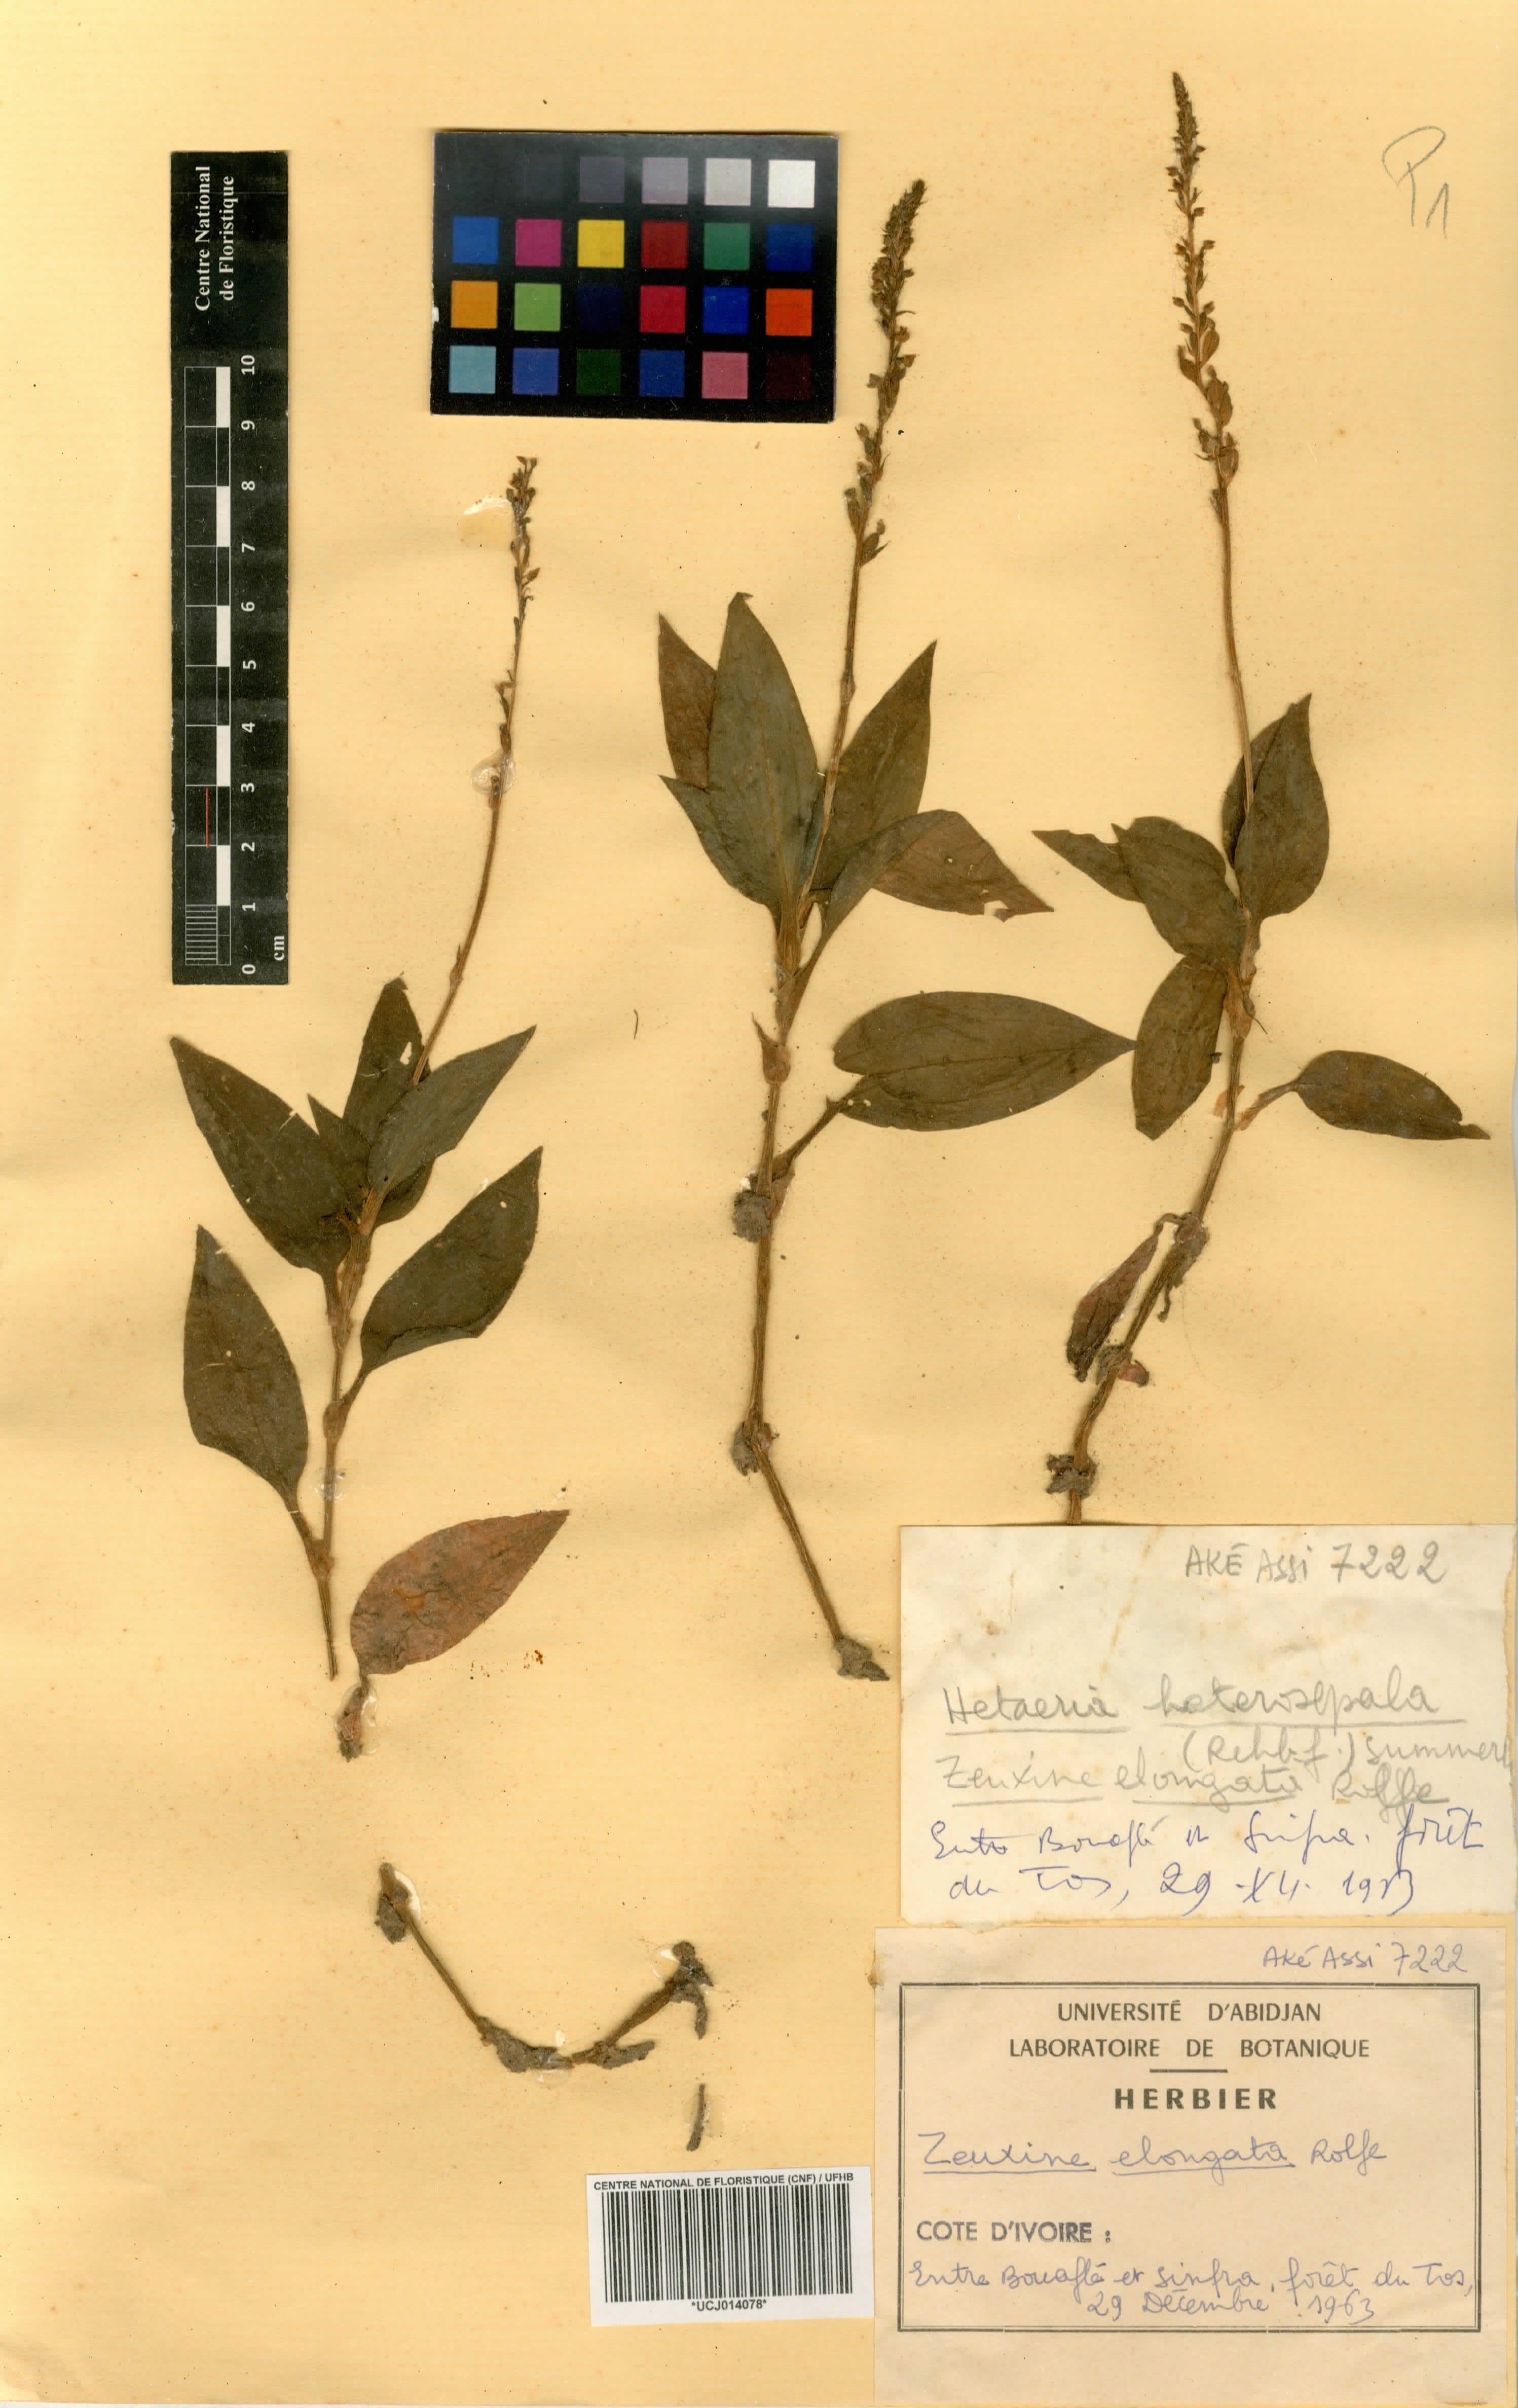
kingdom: Plantae
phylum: Tracheophyta
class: Liliopsida
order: Asparagales
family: Orchidaceae
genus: Zeuxine
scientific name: Zeuxine elongata
